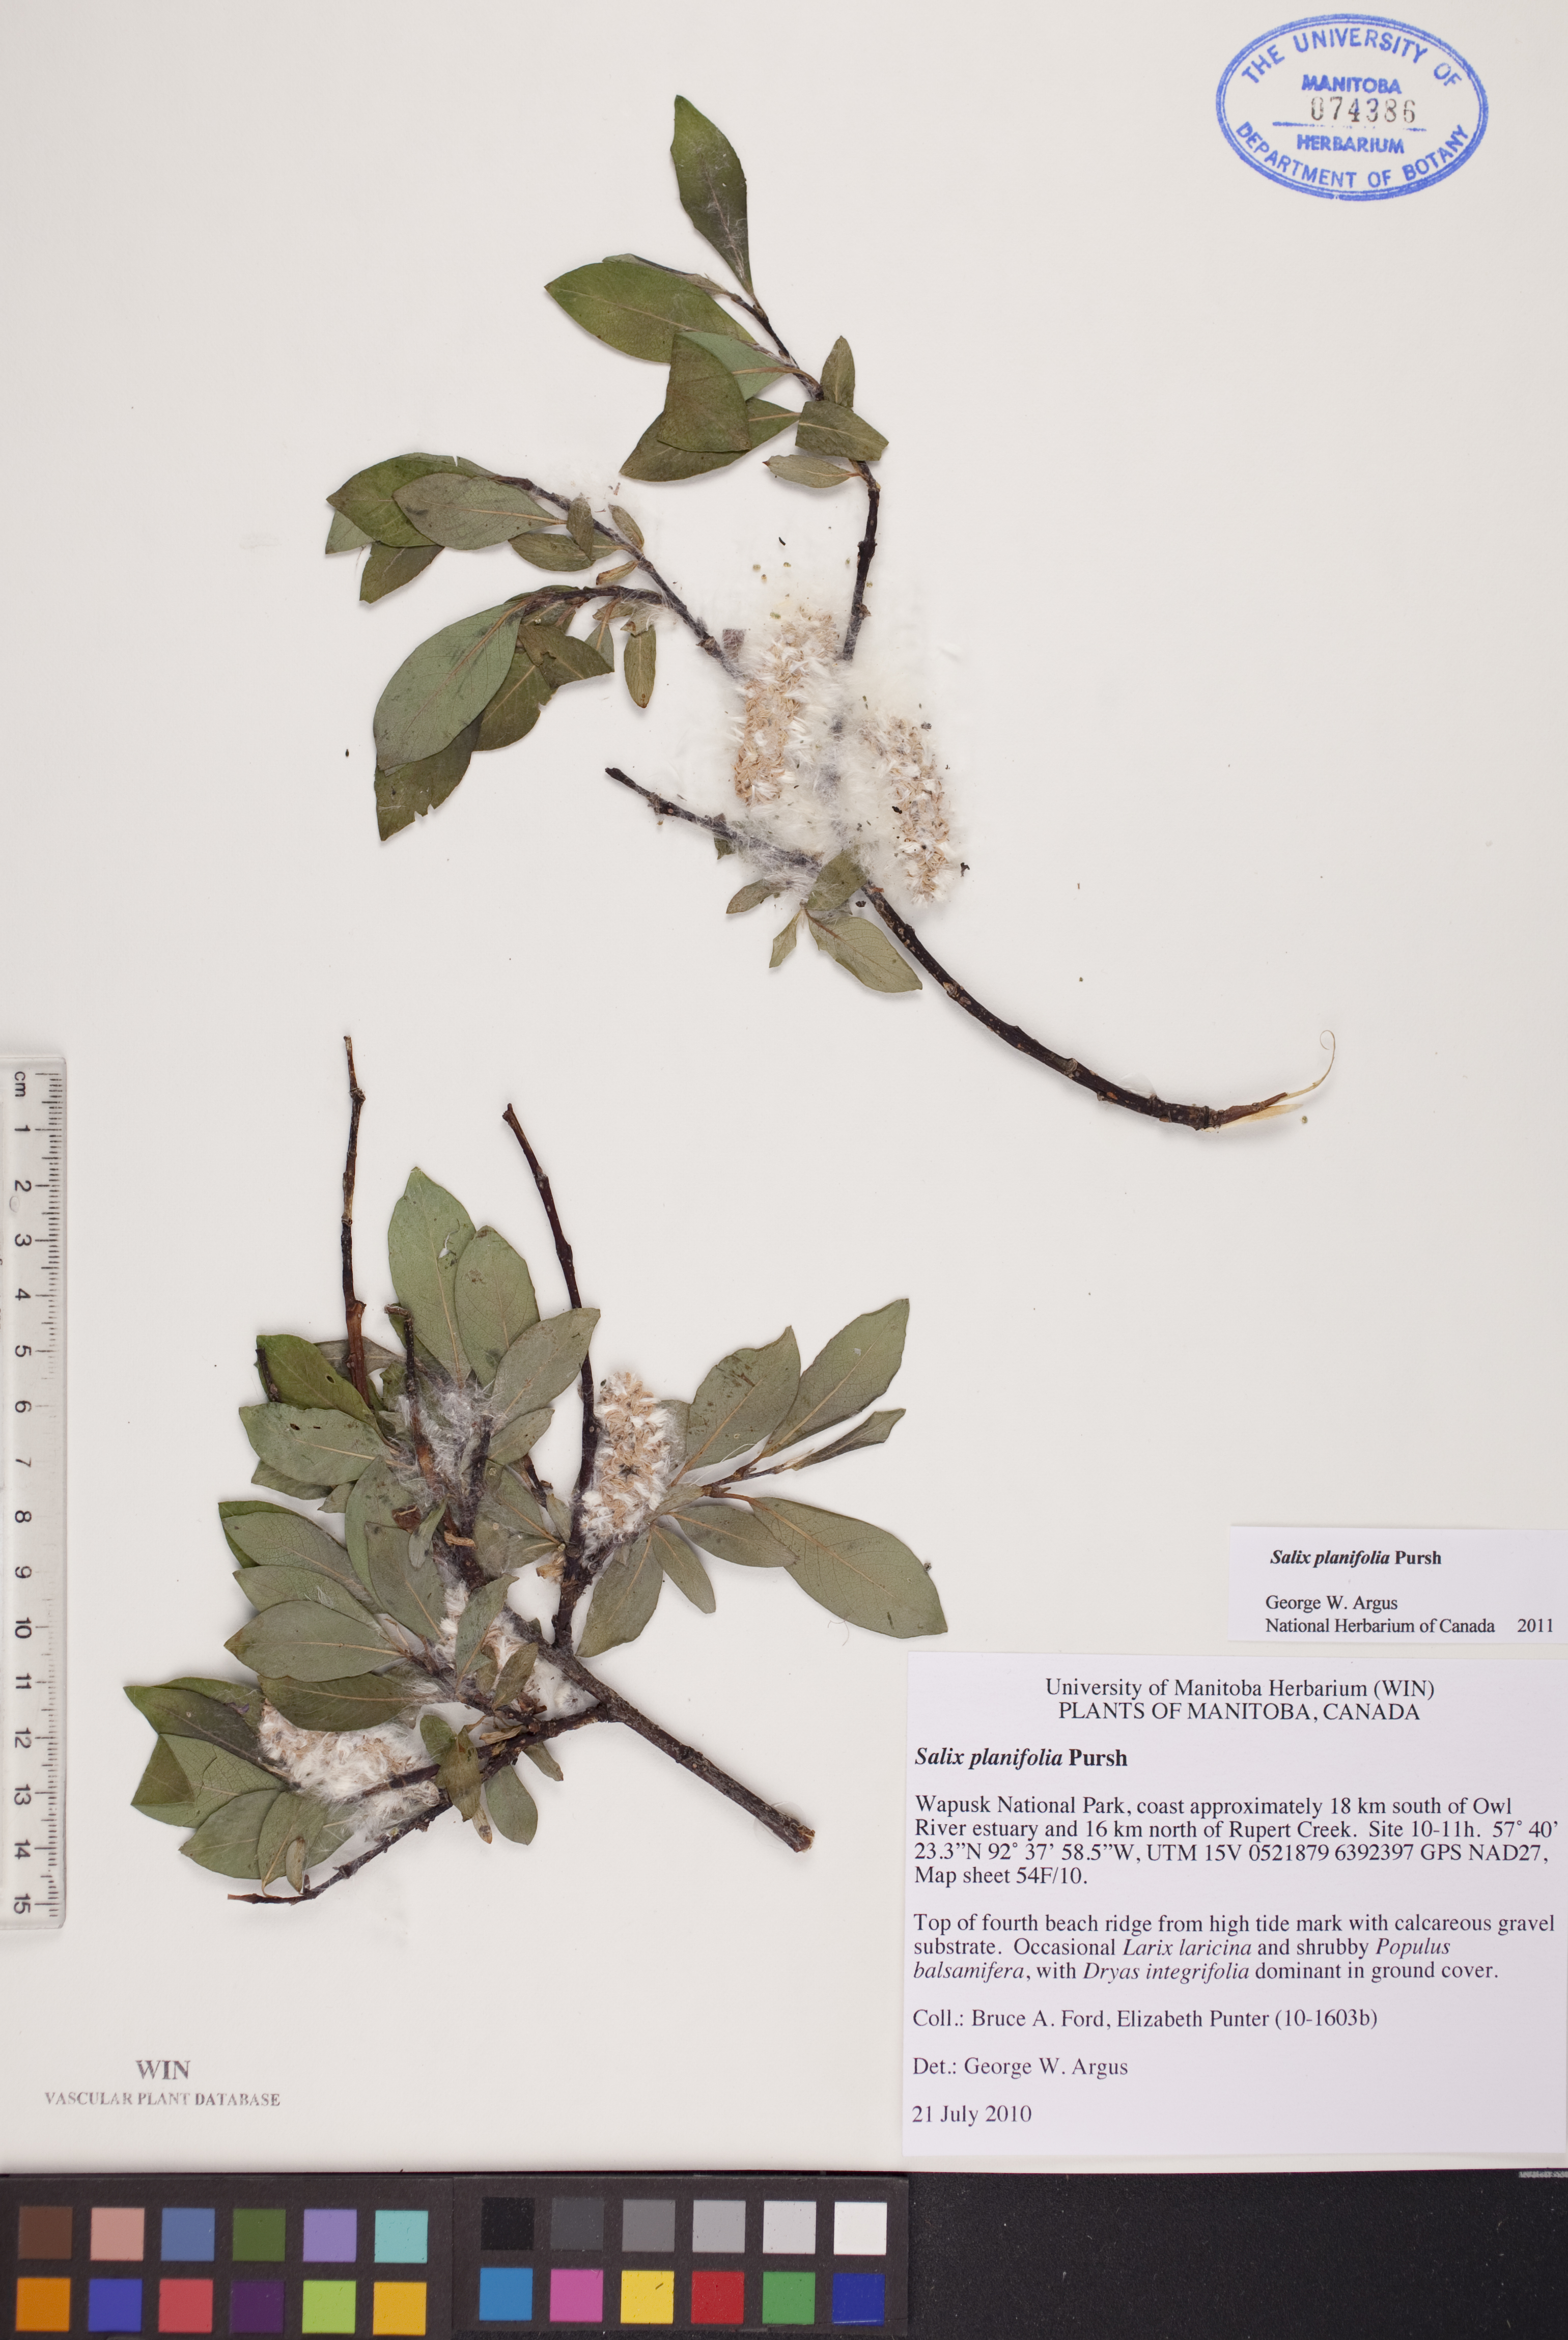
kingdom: Plantae
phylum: Tracheophyta
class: Magnoliopsida
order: Malpighiales
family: Salicaceae
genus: Salix
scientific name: Salix planifolia
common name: Mountain willow
